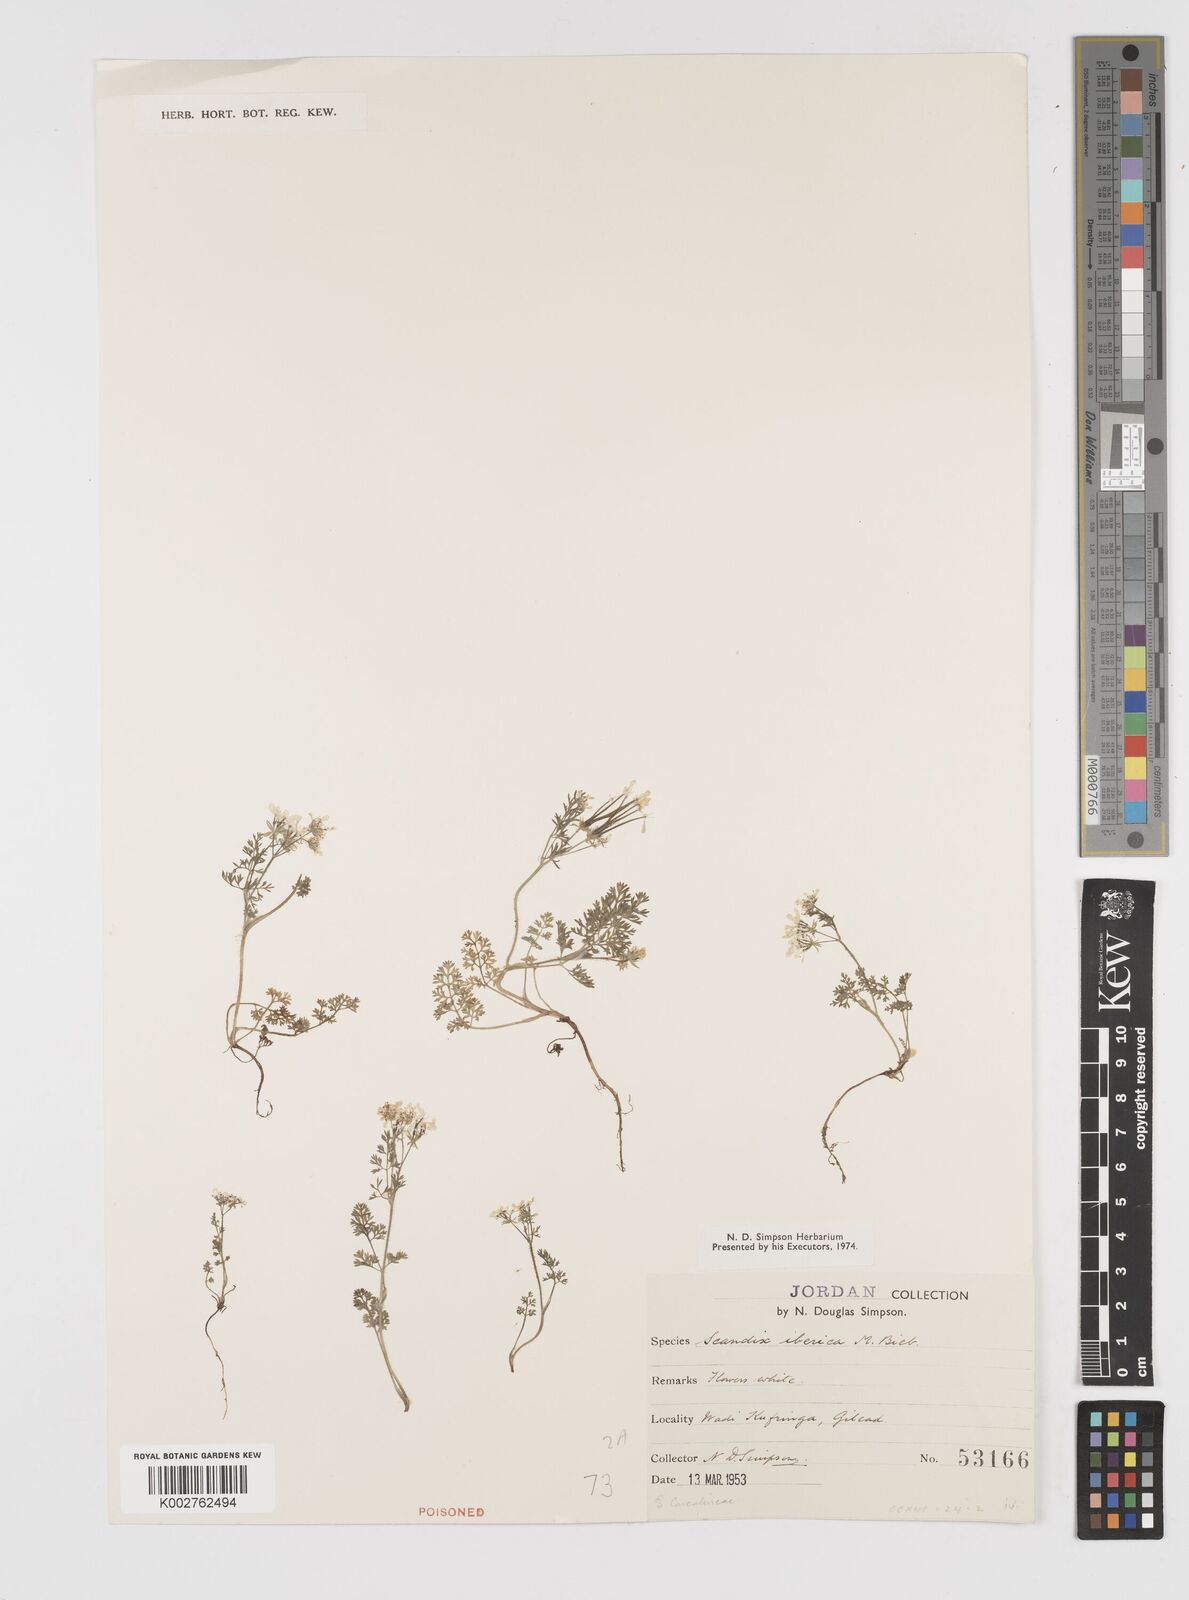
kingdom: Plantae
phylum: Tracheophyta
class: Magnoliopsida
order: Apiales
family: Apiaceae
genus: Scandix
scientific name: Scandix iberica
